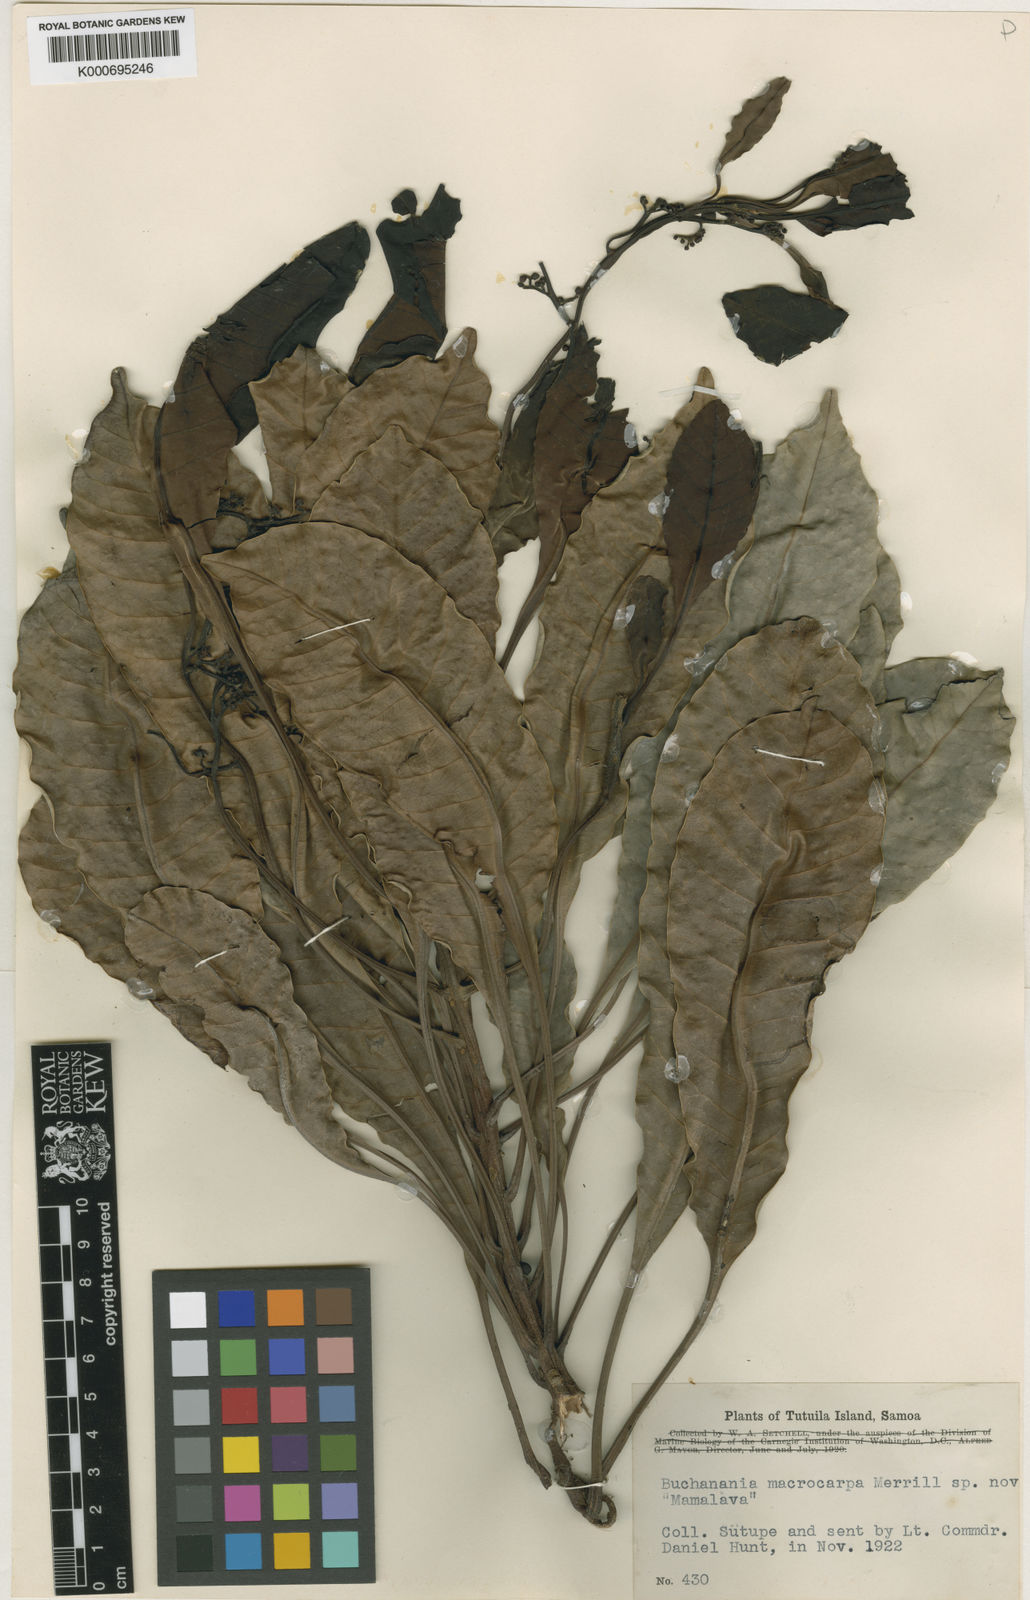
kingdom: Plantae
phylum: Tracheophyta
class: Magnoliopsida
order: Sapindales
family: Anacardiaceae
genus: Buchanania
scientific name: Buchanania macrocarpa
